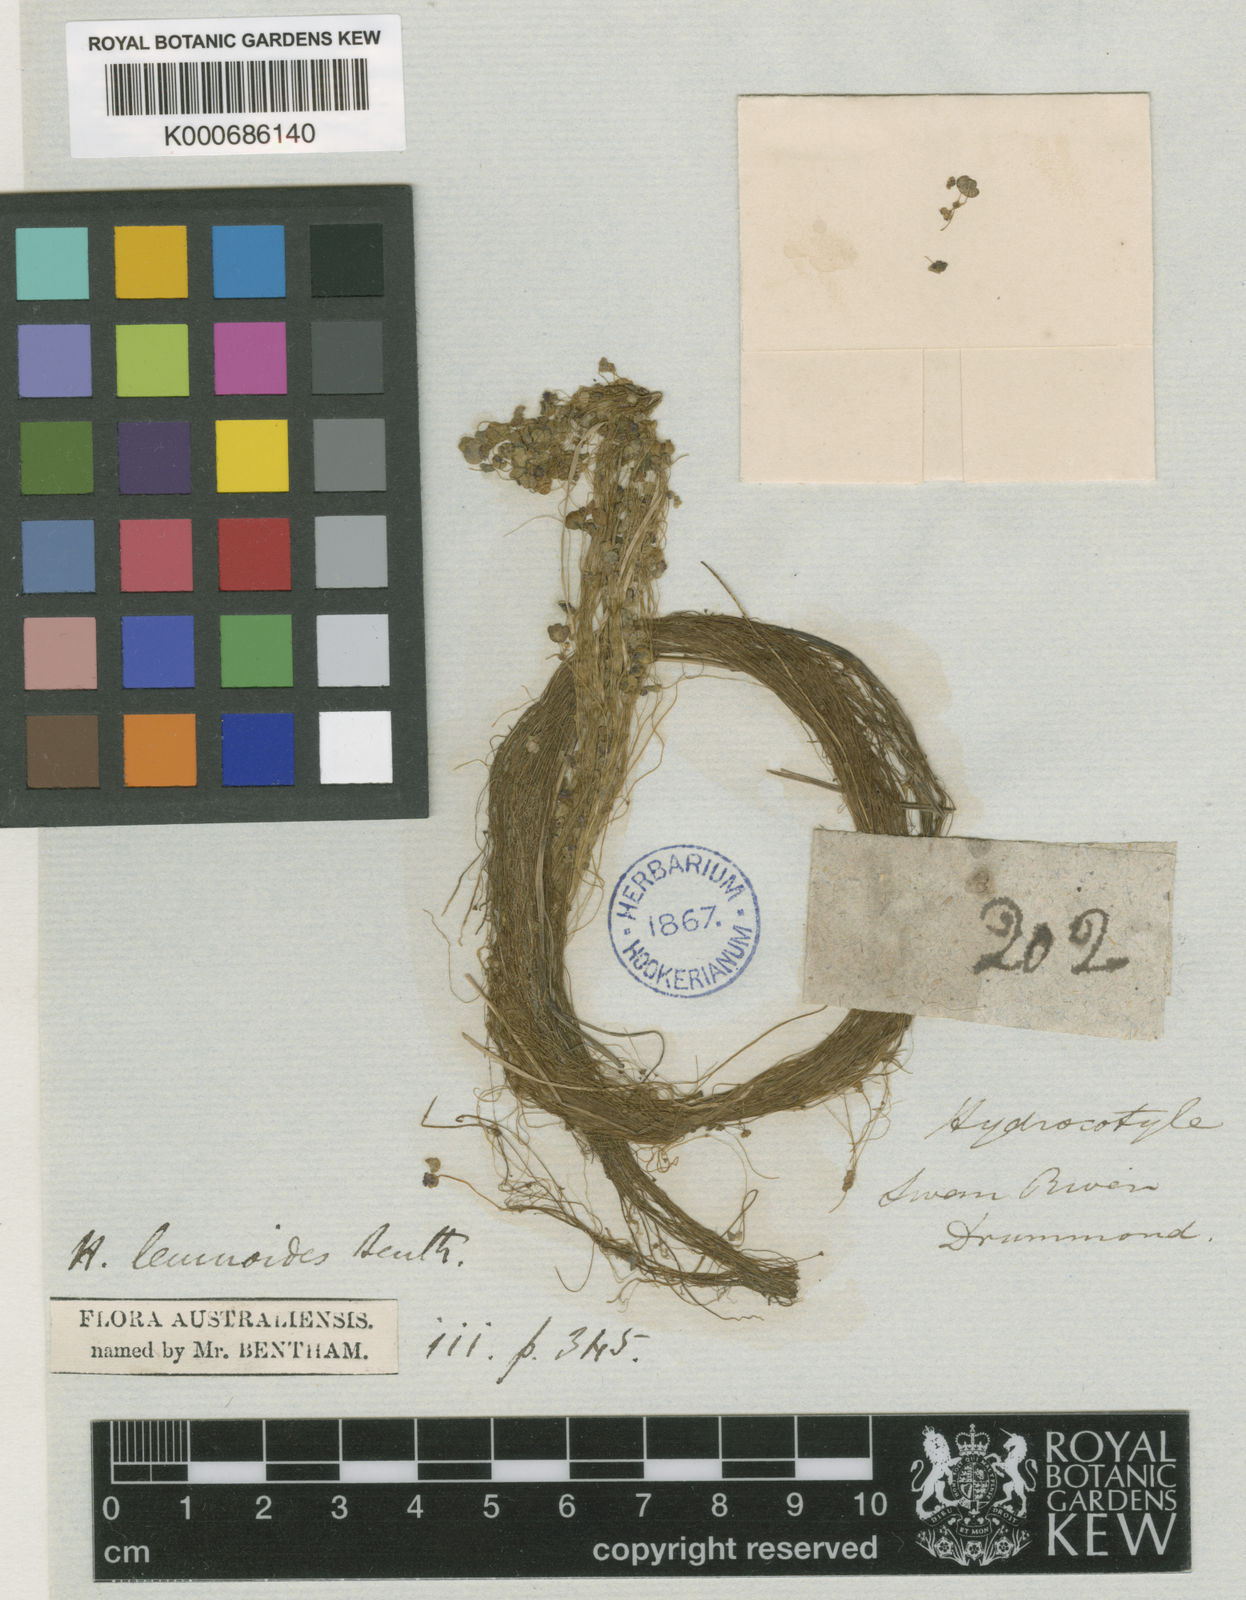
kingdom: Plantae
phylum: Tracheophyta
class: Magnoliopsida
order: Apiales
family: Araliaceae
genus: Hydrocotyle
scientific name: Hydrocotyle lemnoides
